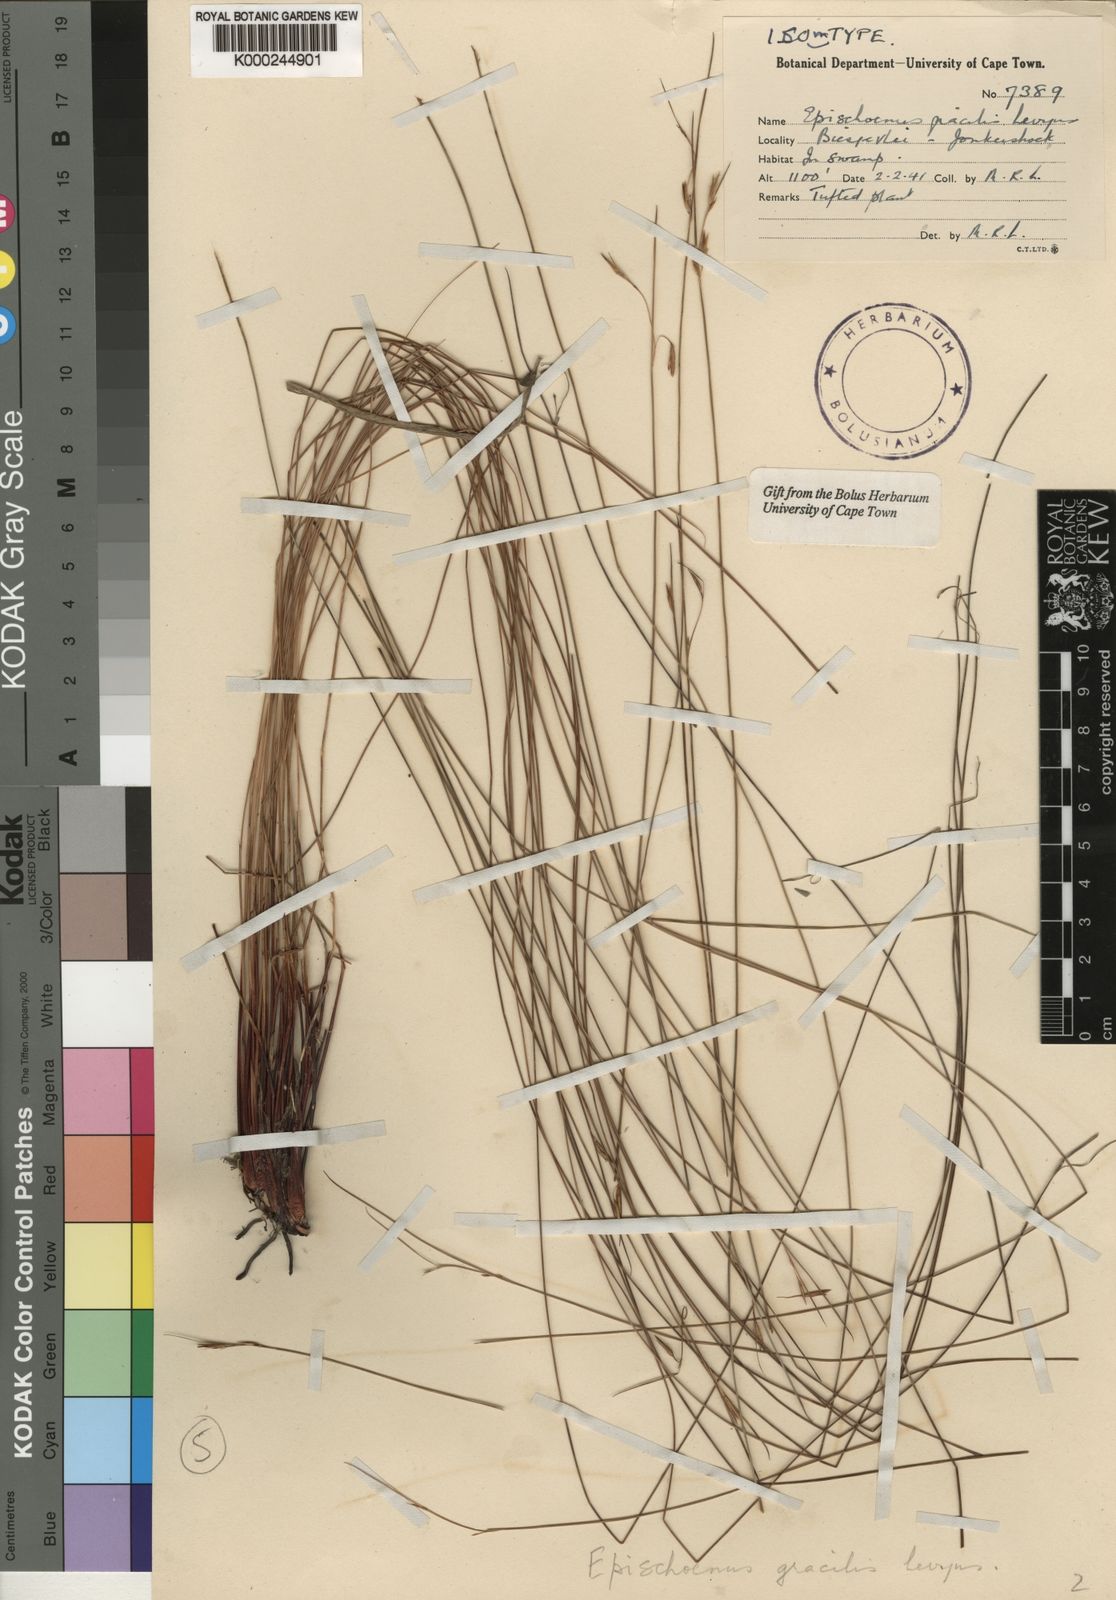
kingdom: Plantae
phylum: Tracheophyta
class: Liliopsida
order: Poales
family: Cyperaceae
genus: Schoenus
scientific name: Schoenus gracillimus
